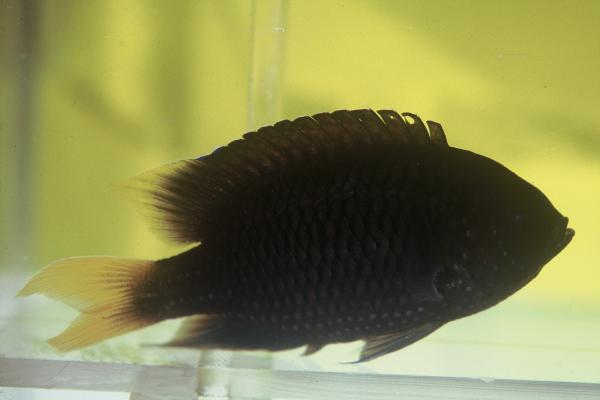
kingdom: Animalia
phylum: Chordata
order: Perciformes
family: Pomacentridae
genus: Neopomacentrus
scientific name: Neopomacentrus fallax
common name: Violet damsel
